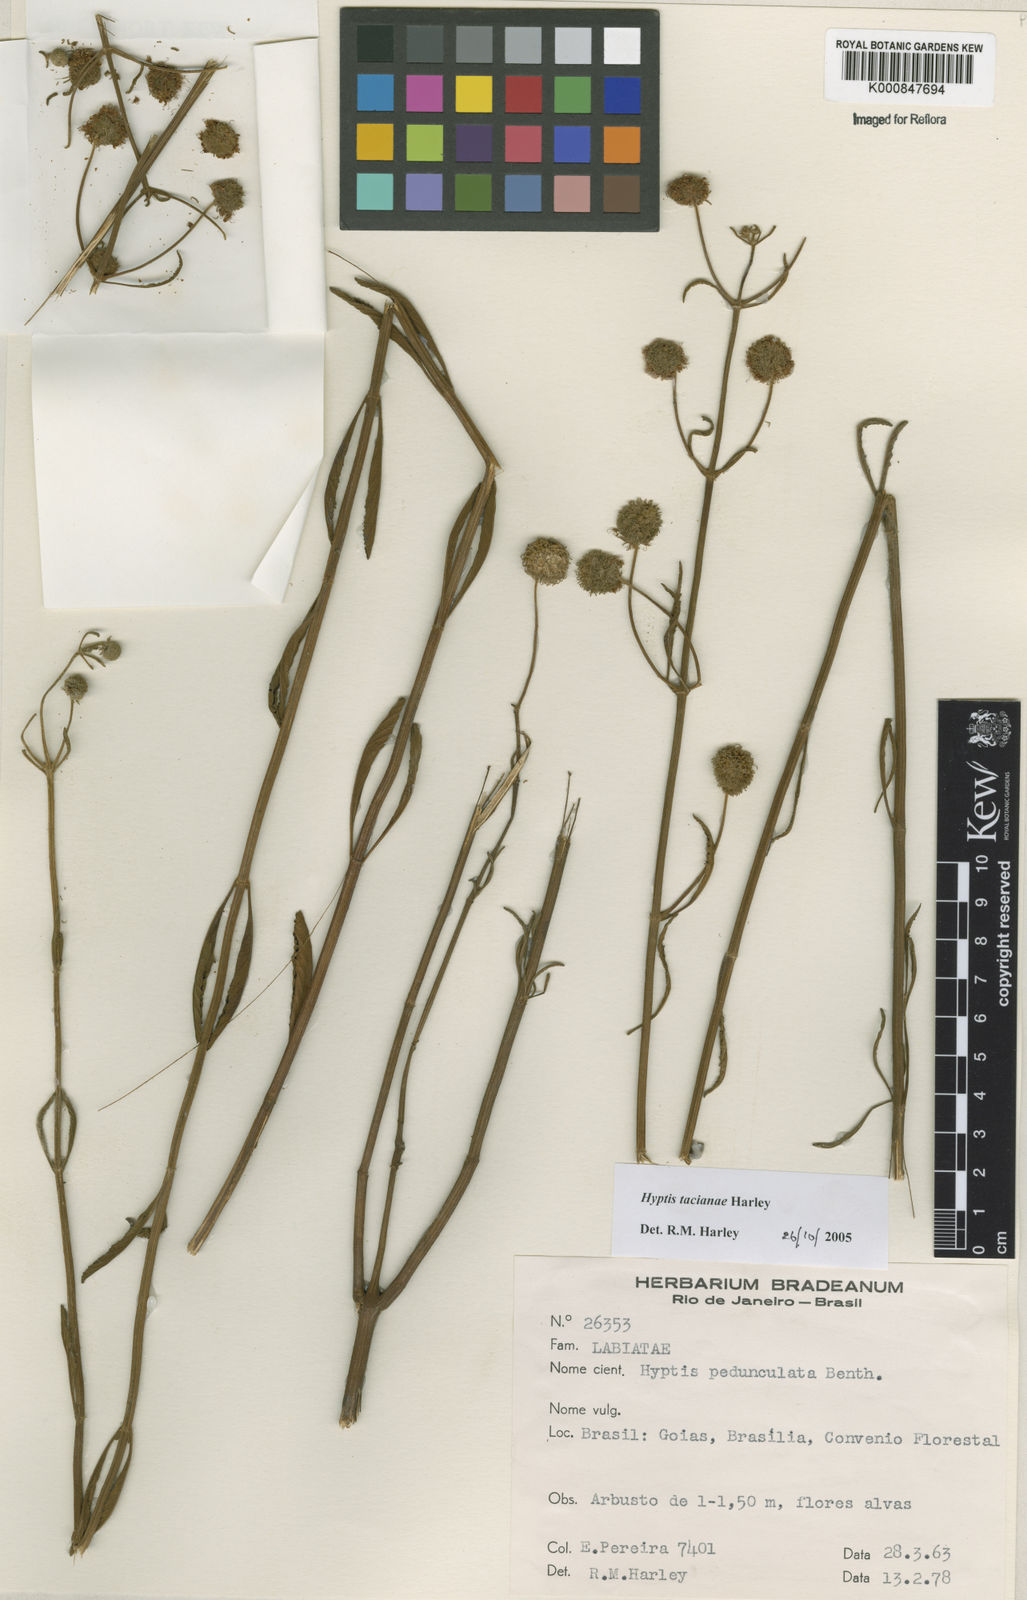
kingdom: Plantae
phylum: Tracheophyta
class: Magnoliopsida
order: Lamiales
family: Lamiaceae
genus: Cyanocephalus
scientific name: Cyanocephalus tacianae
